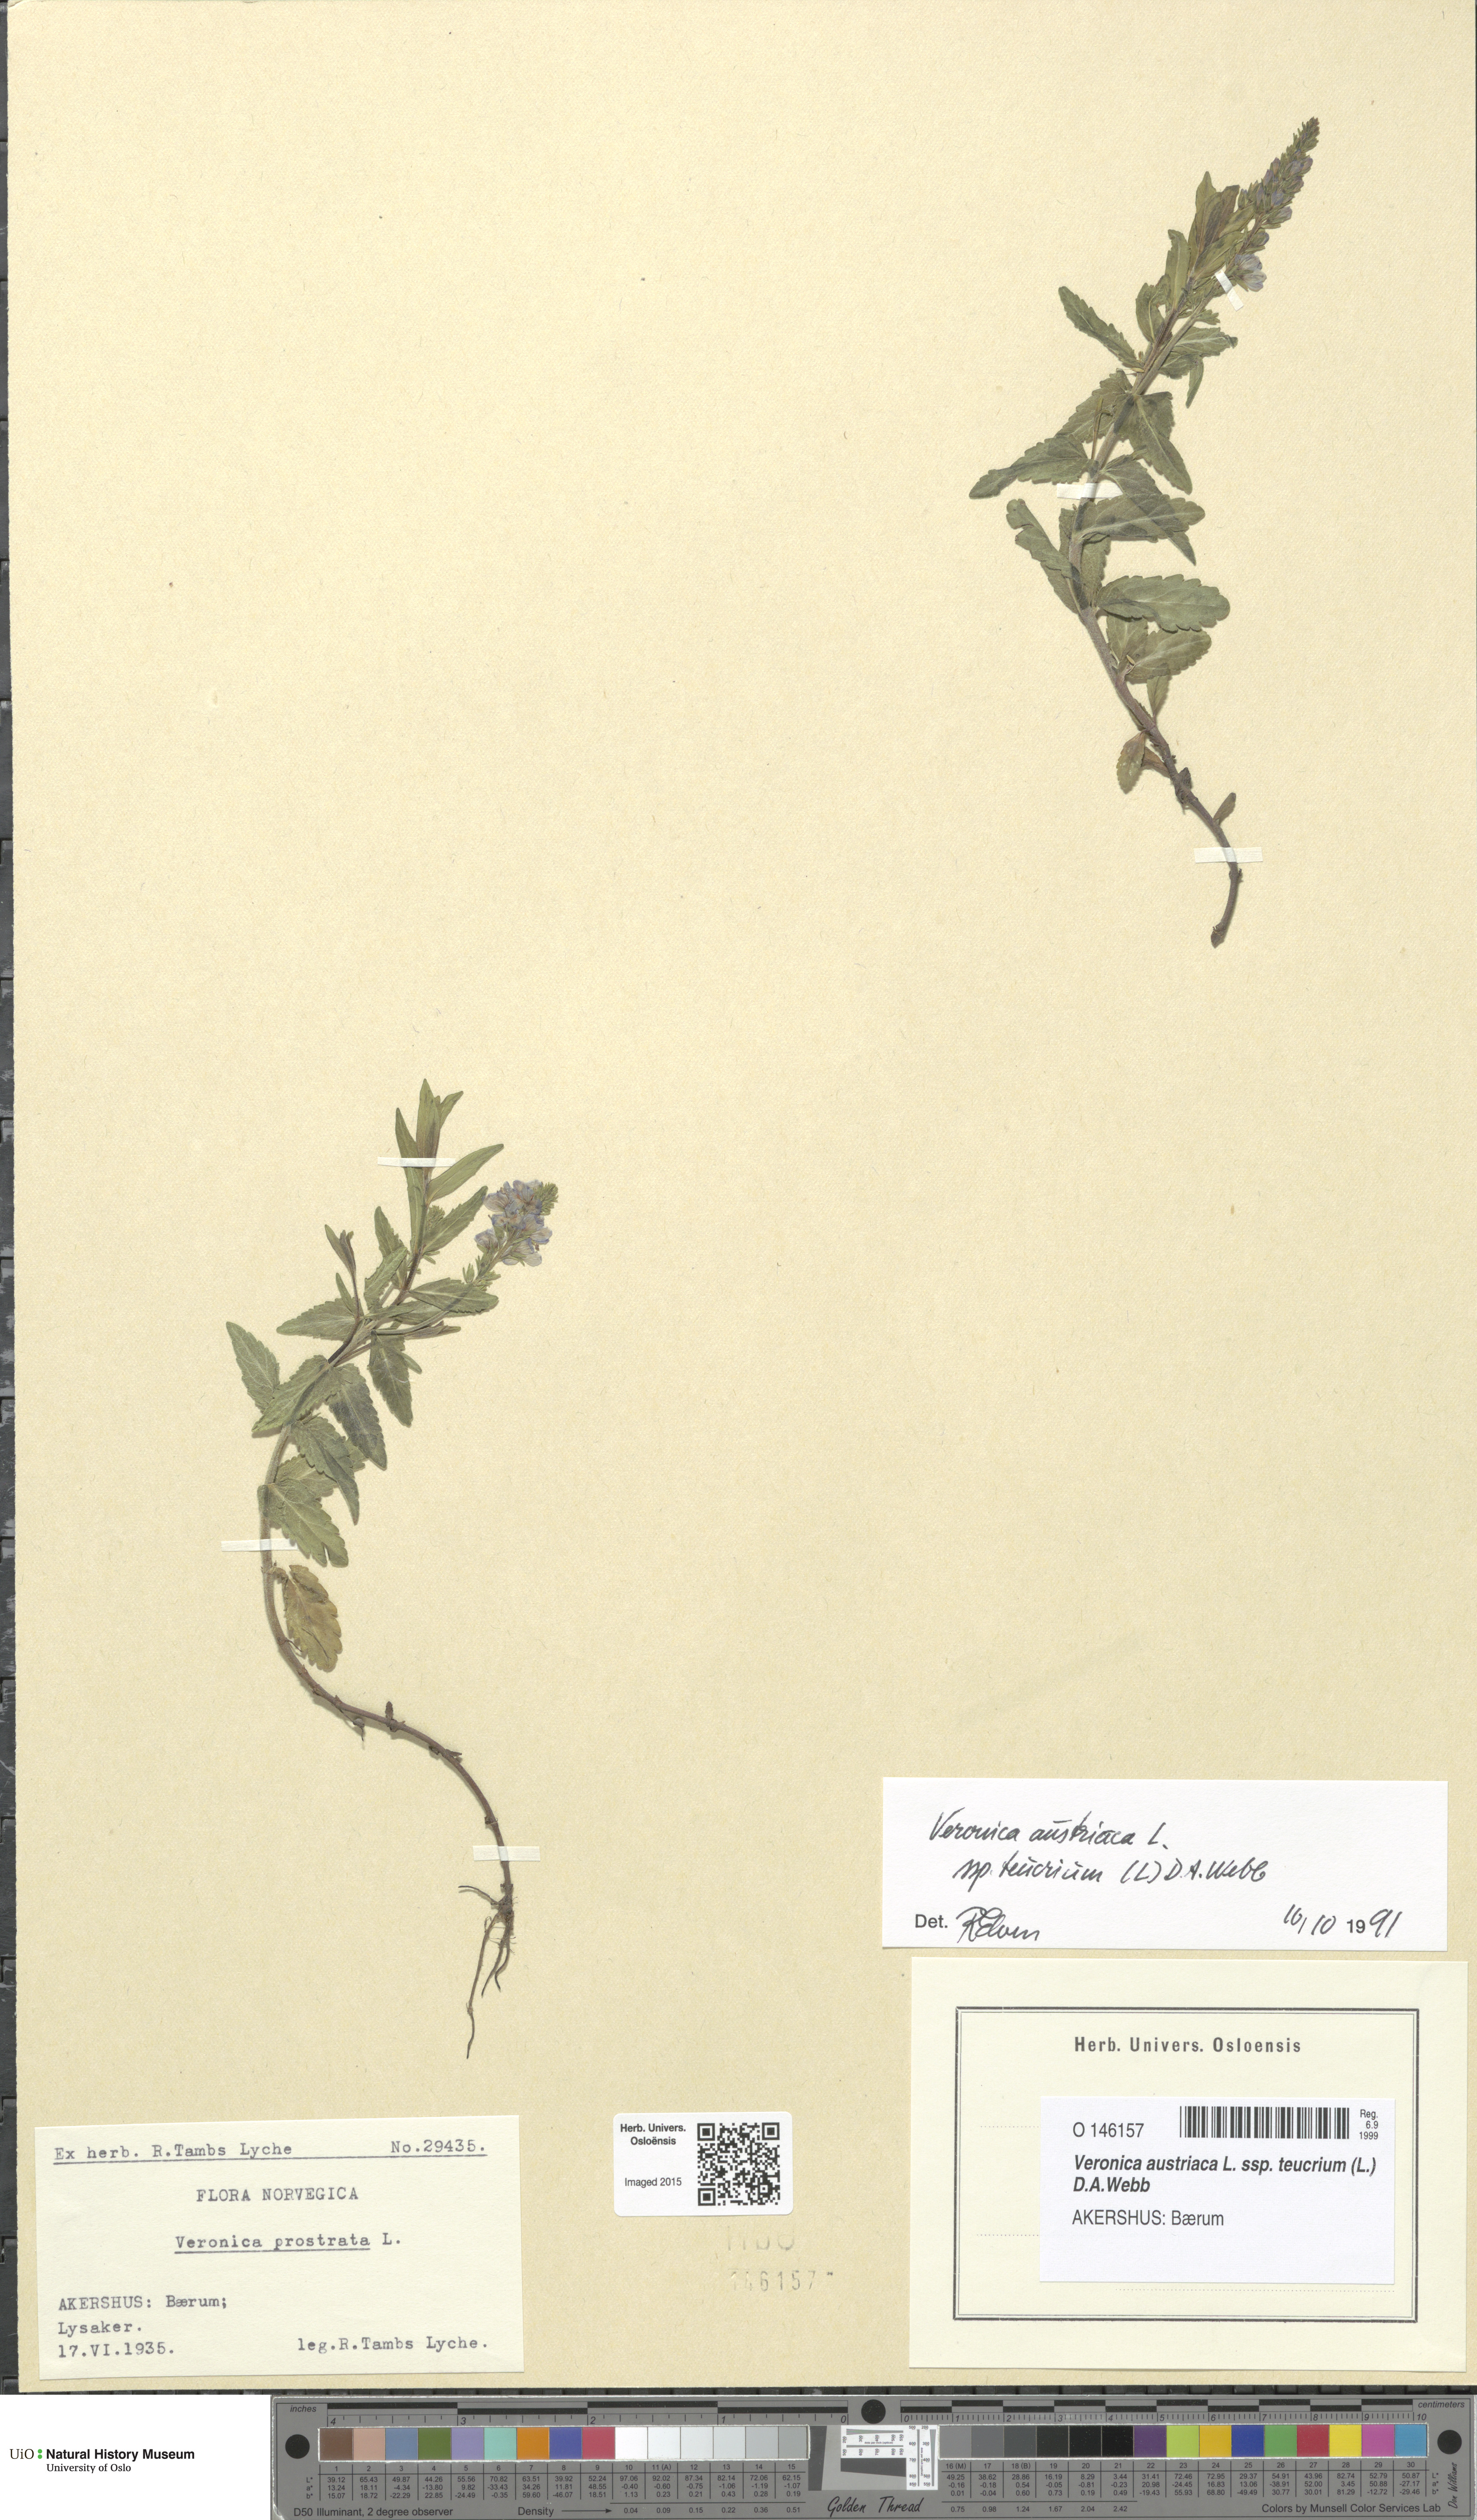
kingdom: Plantae
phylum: Tracheophyta
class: Magnoliopsida
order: Lamiales
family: Plantaginaceae
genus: Veronica
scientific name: Veronica teucrium
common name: Large speedwell
